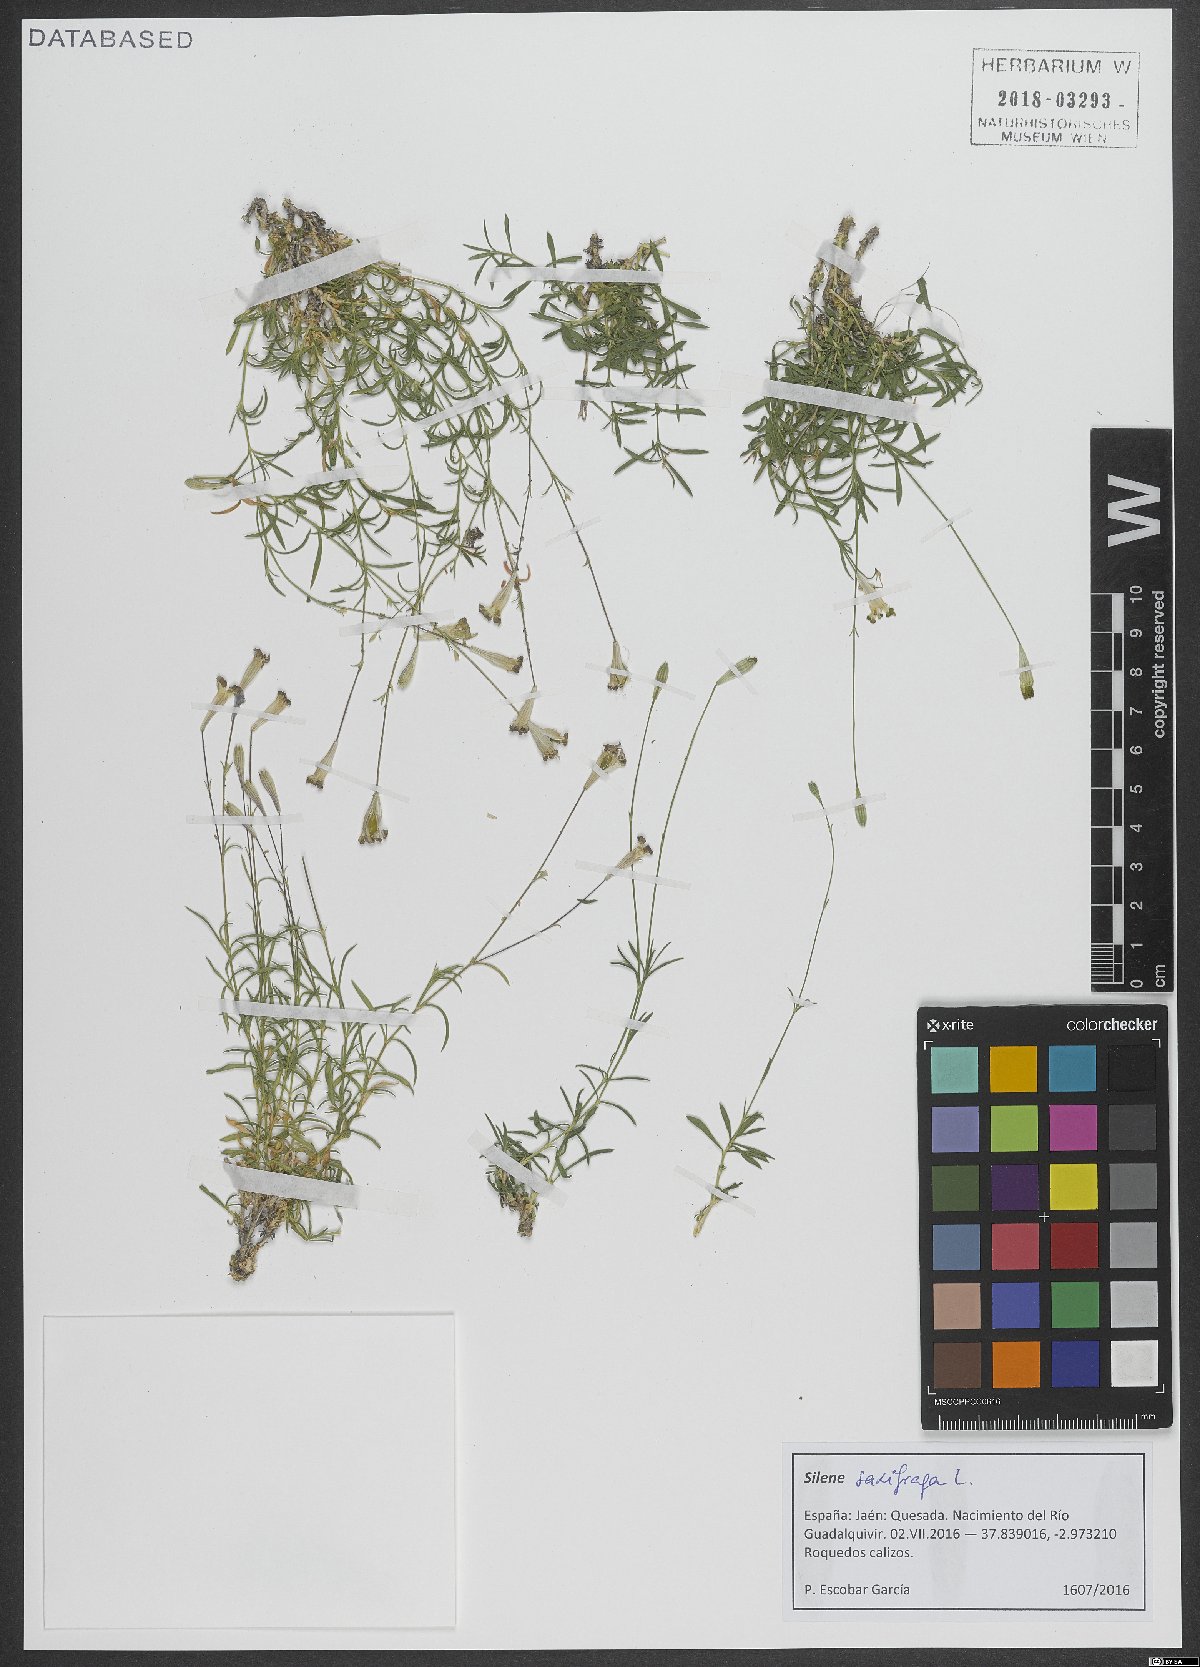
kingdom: Plantae
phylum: Tracheophyta
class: Magnoliopsida
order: Caryophyllales
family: Caryophyllaceae
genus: Silene
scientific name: Silene saxifraga
